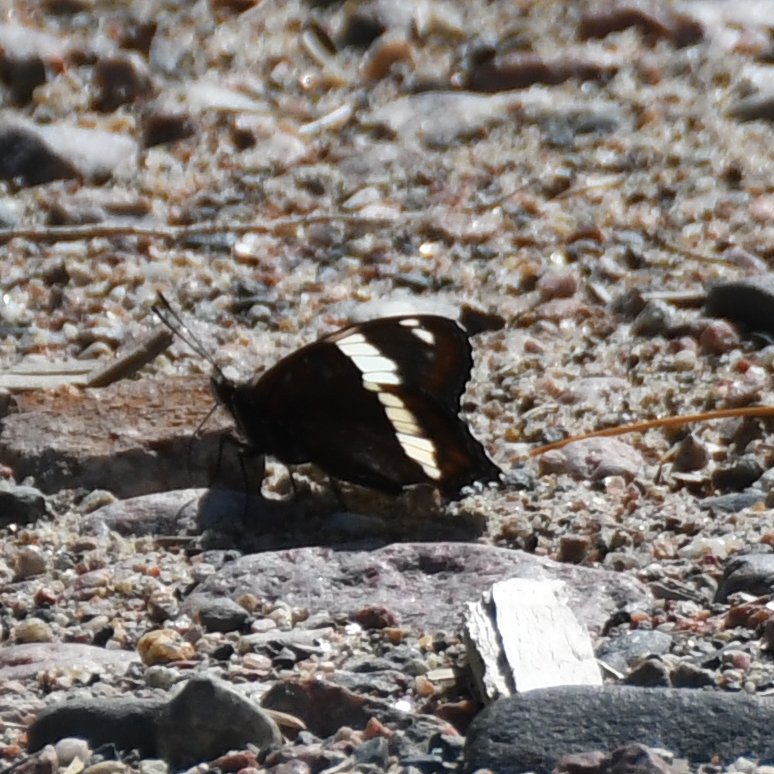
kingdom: Animalia
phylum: Arthropoda
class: Insecta
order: Lepidoptera
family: Nymphalidae
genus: Limenitis
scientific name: Limenitis arthemis
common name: Red-spotted Admiral
